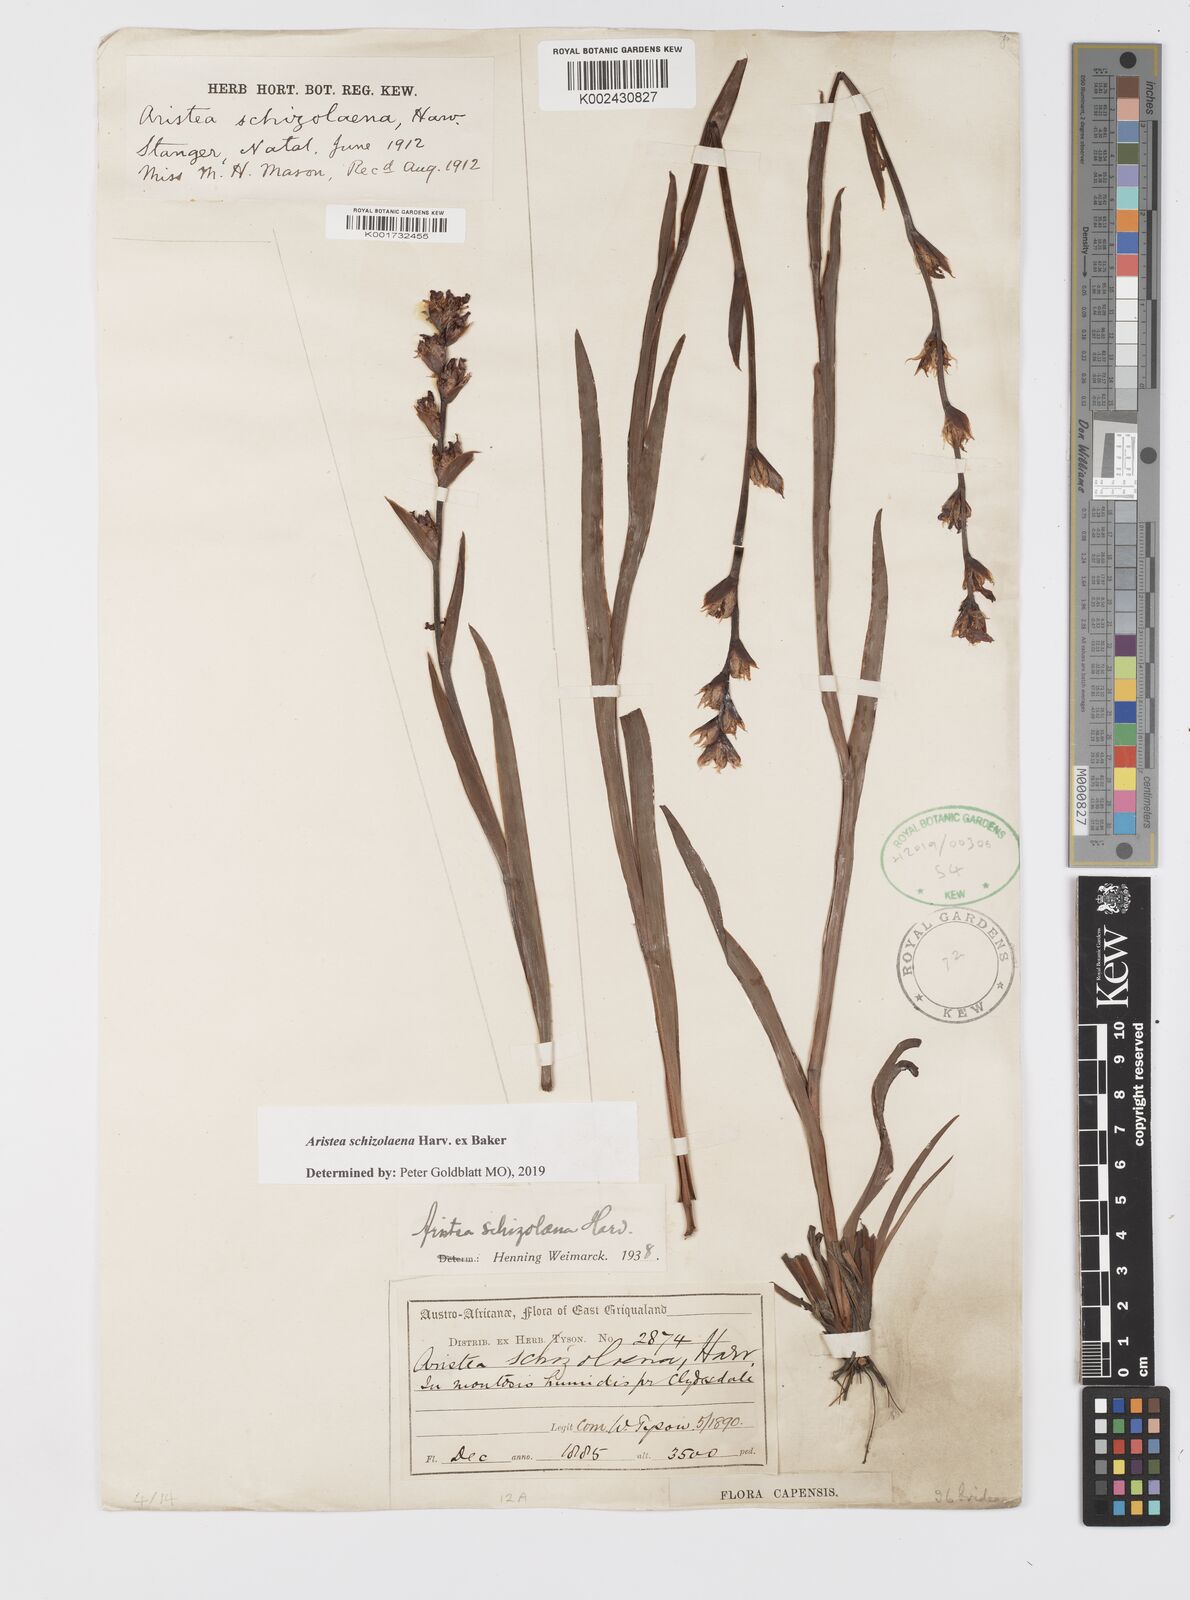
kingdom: Plantae
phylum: Tracheophyta
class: Liliopsida
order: Asparagales
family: Iridaceae
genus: Aristea
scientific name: Aristea schizolaena
